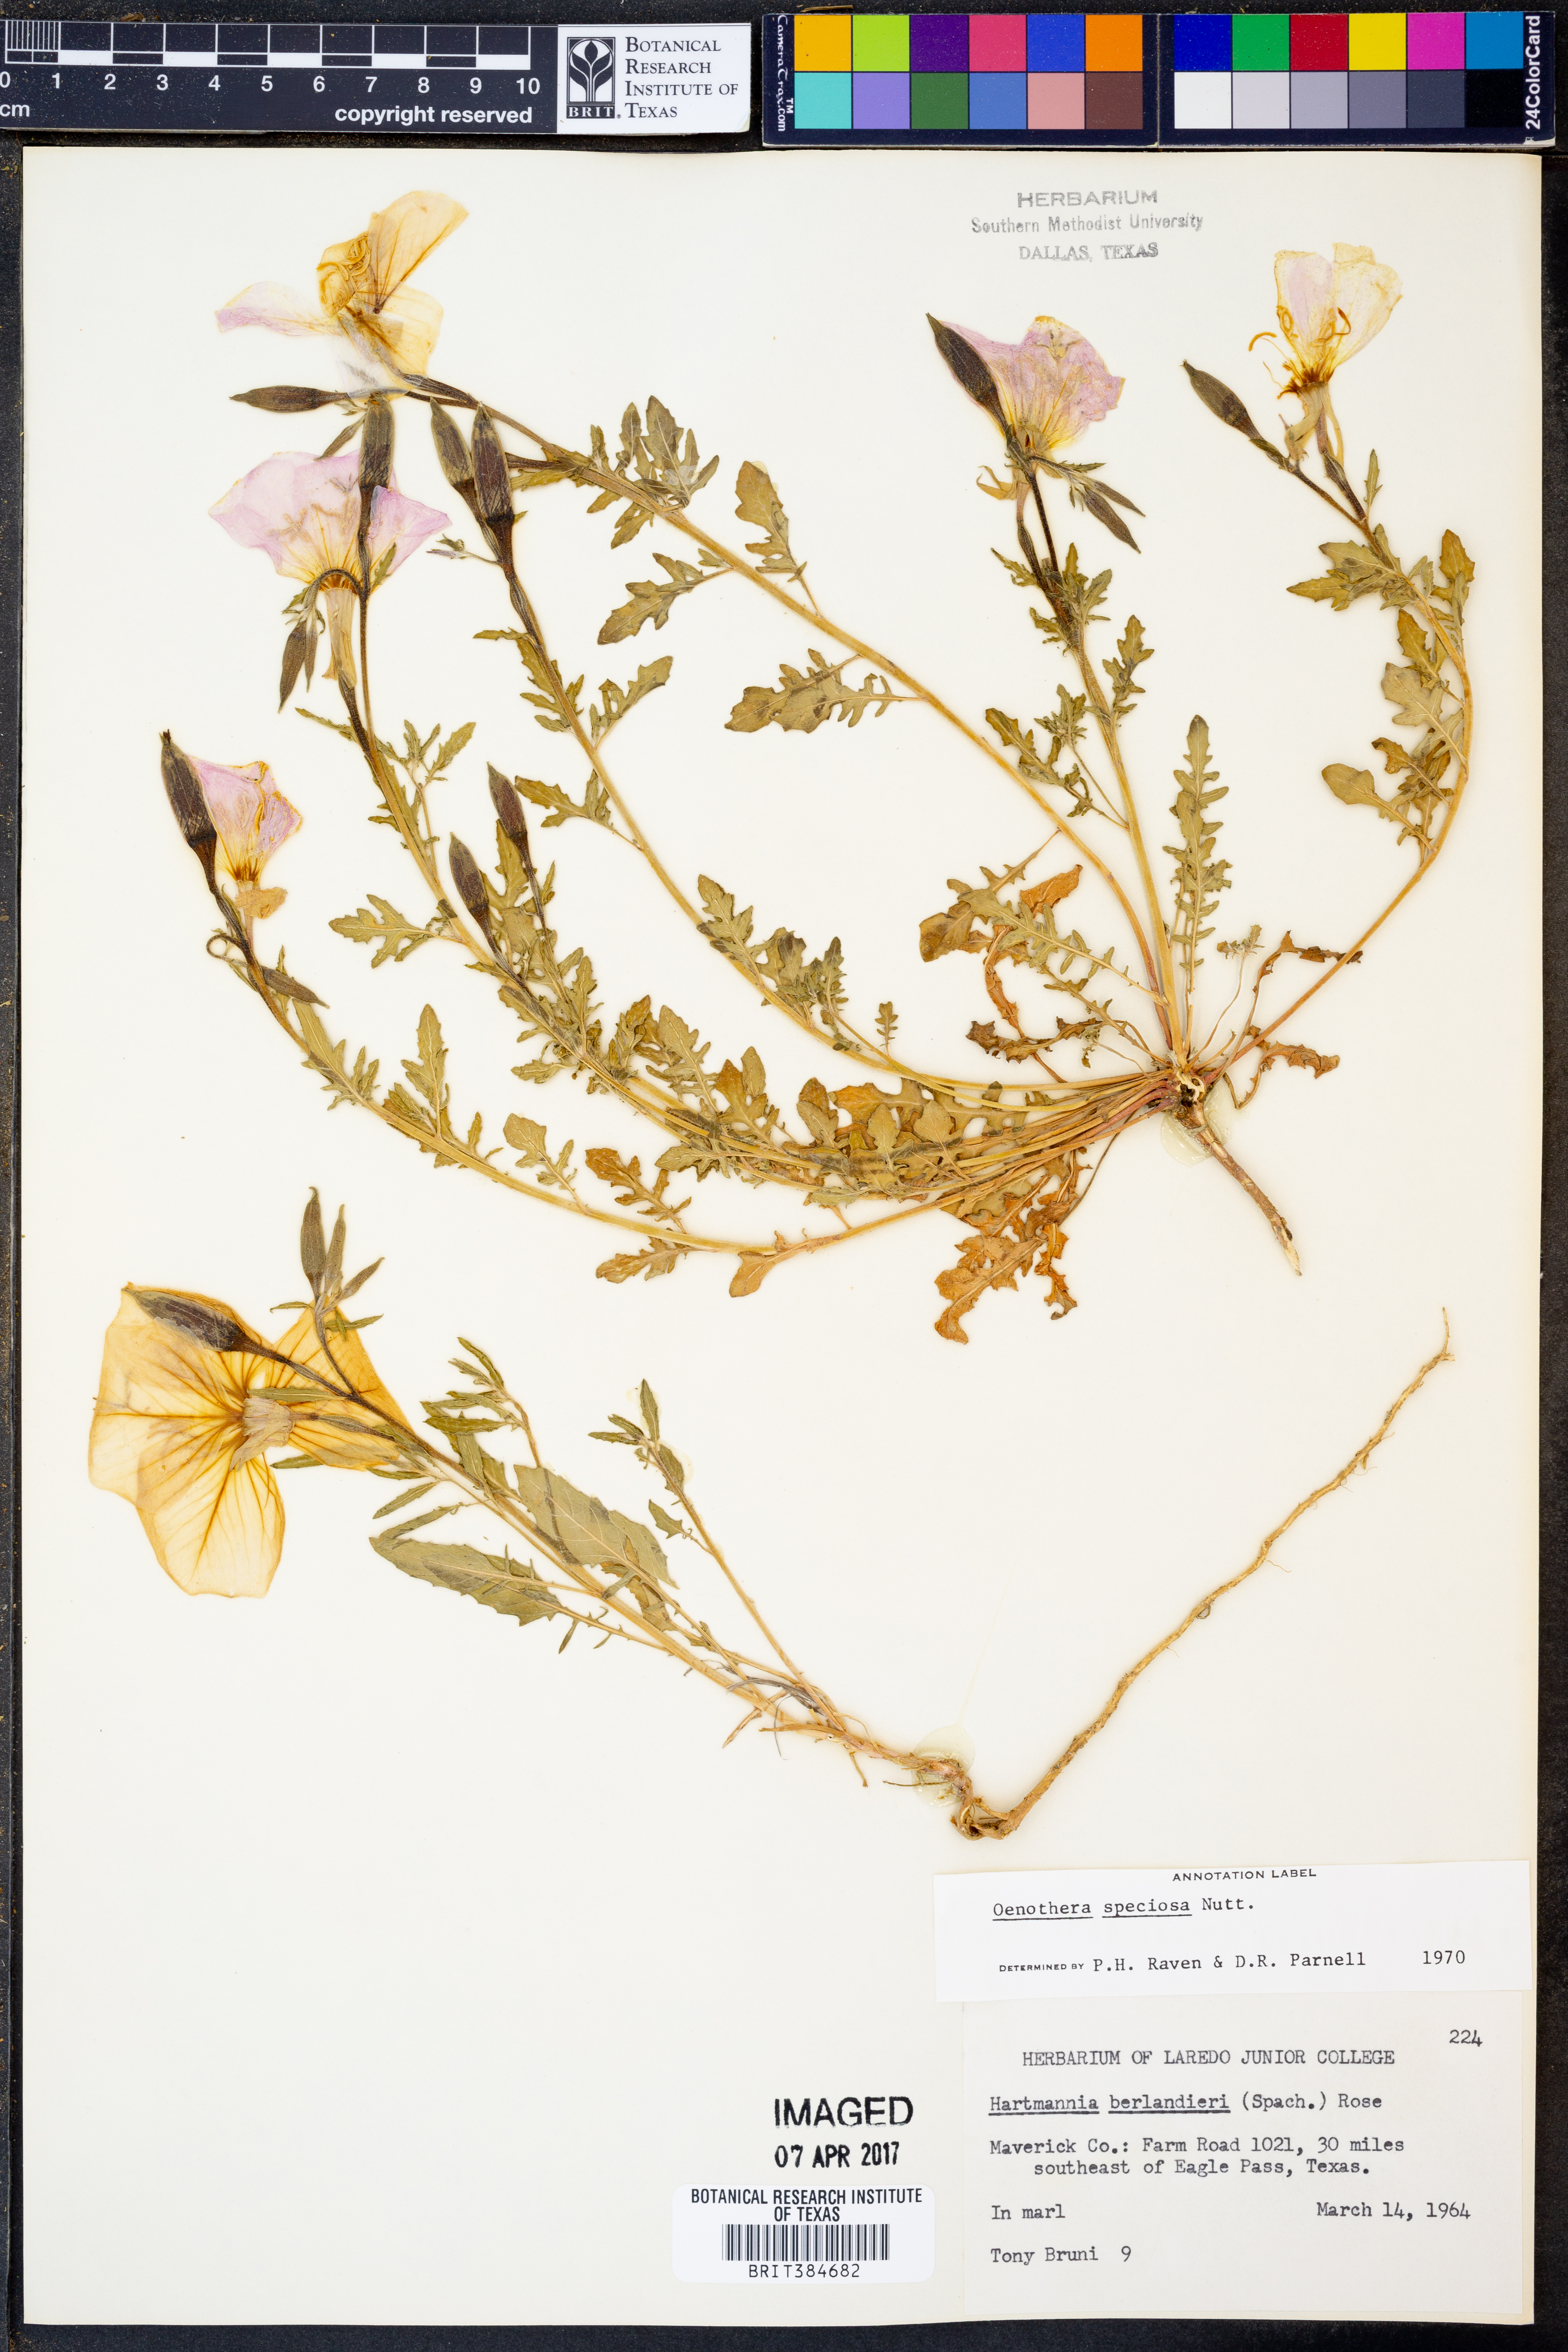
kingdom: Plantae
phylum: Tracheophyta
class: Magnoliopsida
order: Myrtales
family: Onagraceae
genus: Oenothera
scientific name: Oenothera speciosa
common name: White evening-primrose
